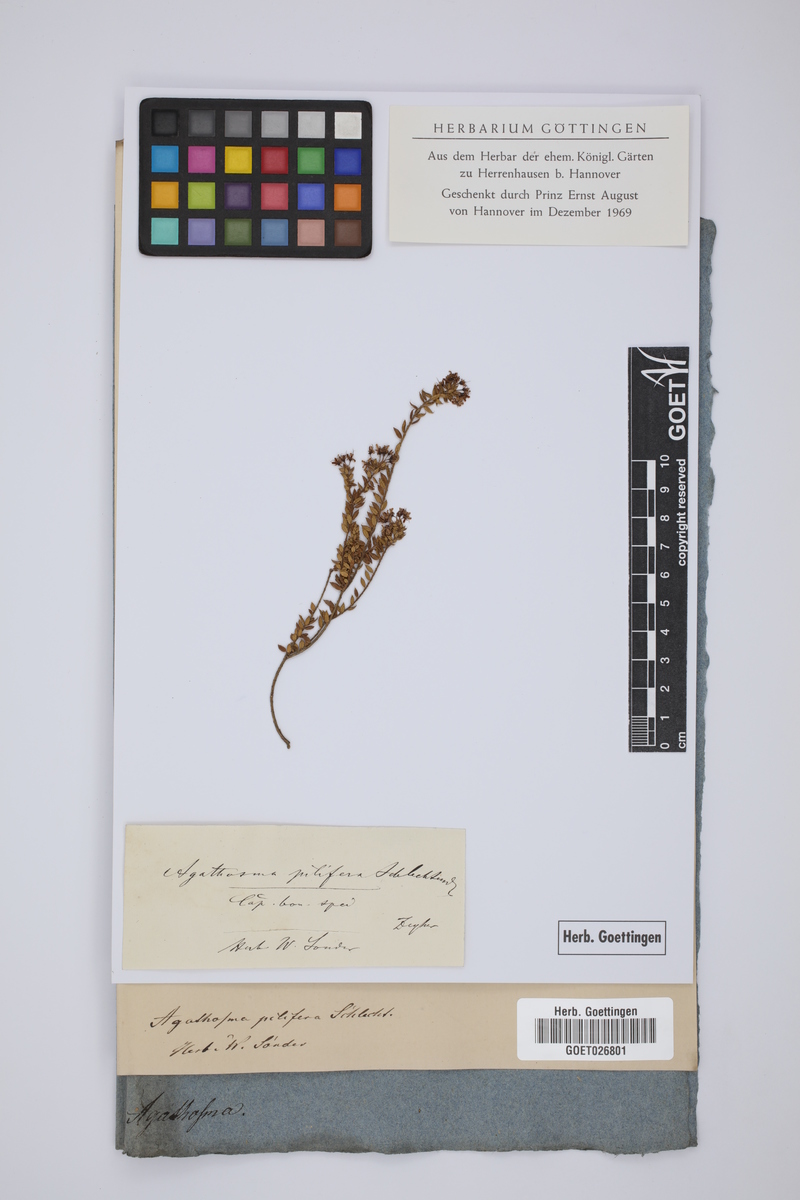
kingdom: Plantae
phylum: Tracheophyta
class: Magnoliopsida
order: Sapindales
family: Rutaceae
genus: Agathosma
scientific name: Agathosma pilifera
